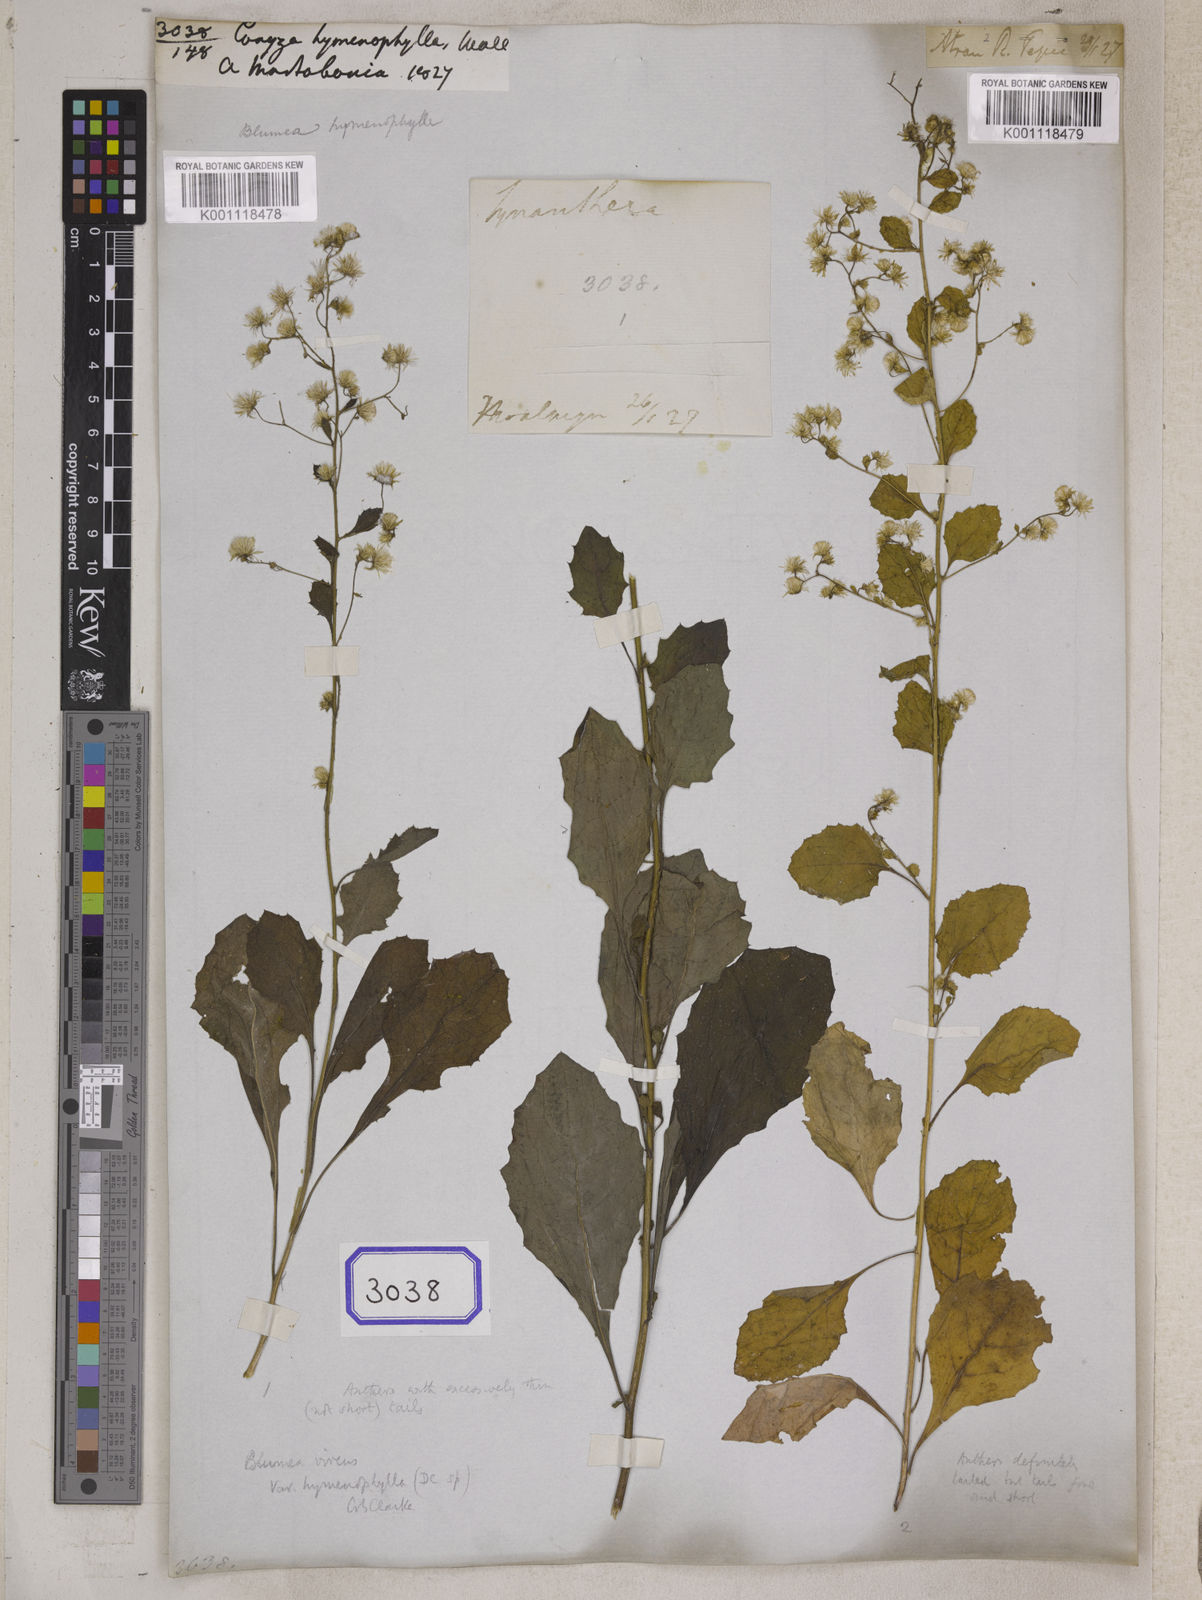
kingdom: Plantae
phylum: Tracheophyta
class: Magnoliopsida
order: Asterales
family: Asteraceae
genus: Pluchea
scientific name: Pluchea paniculata
